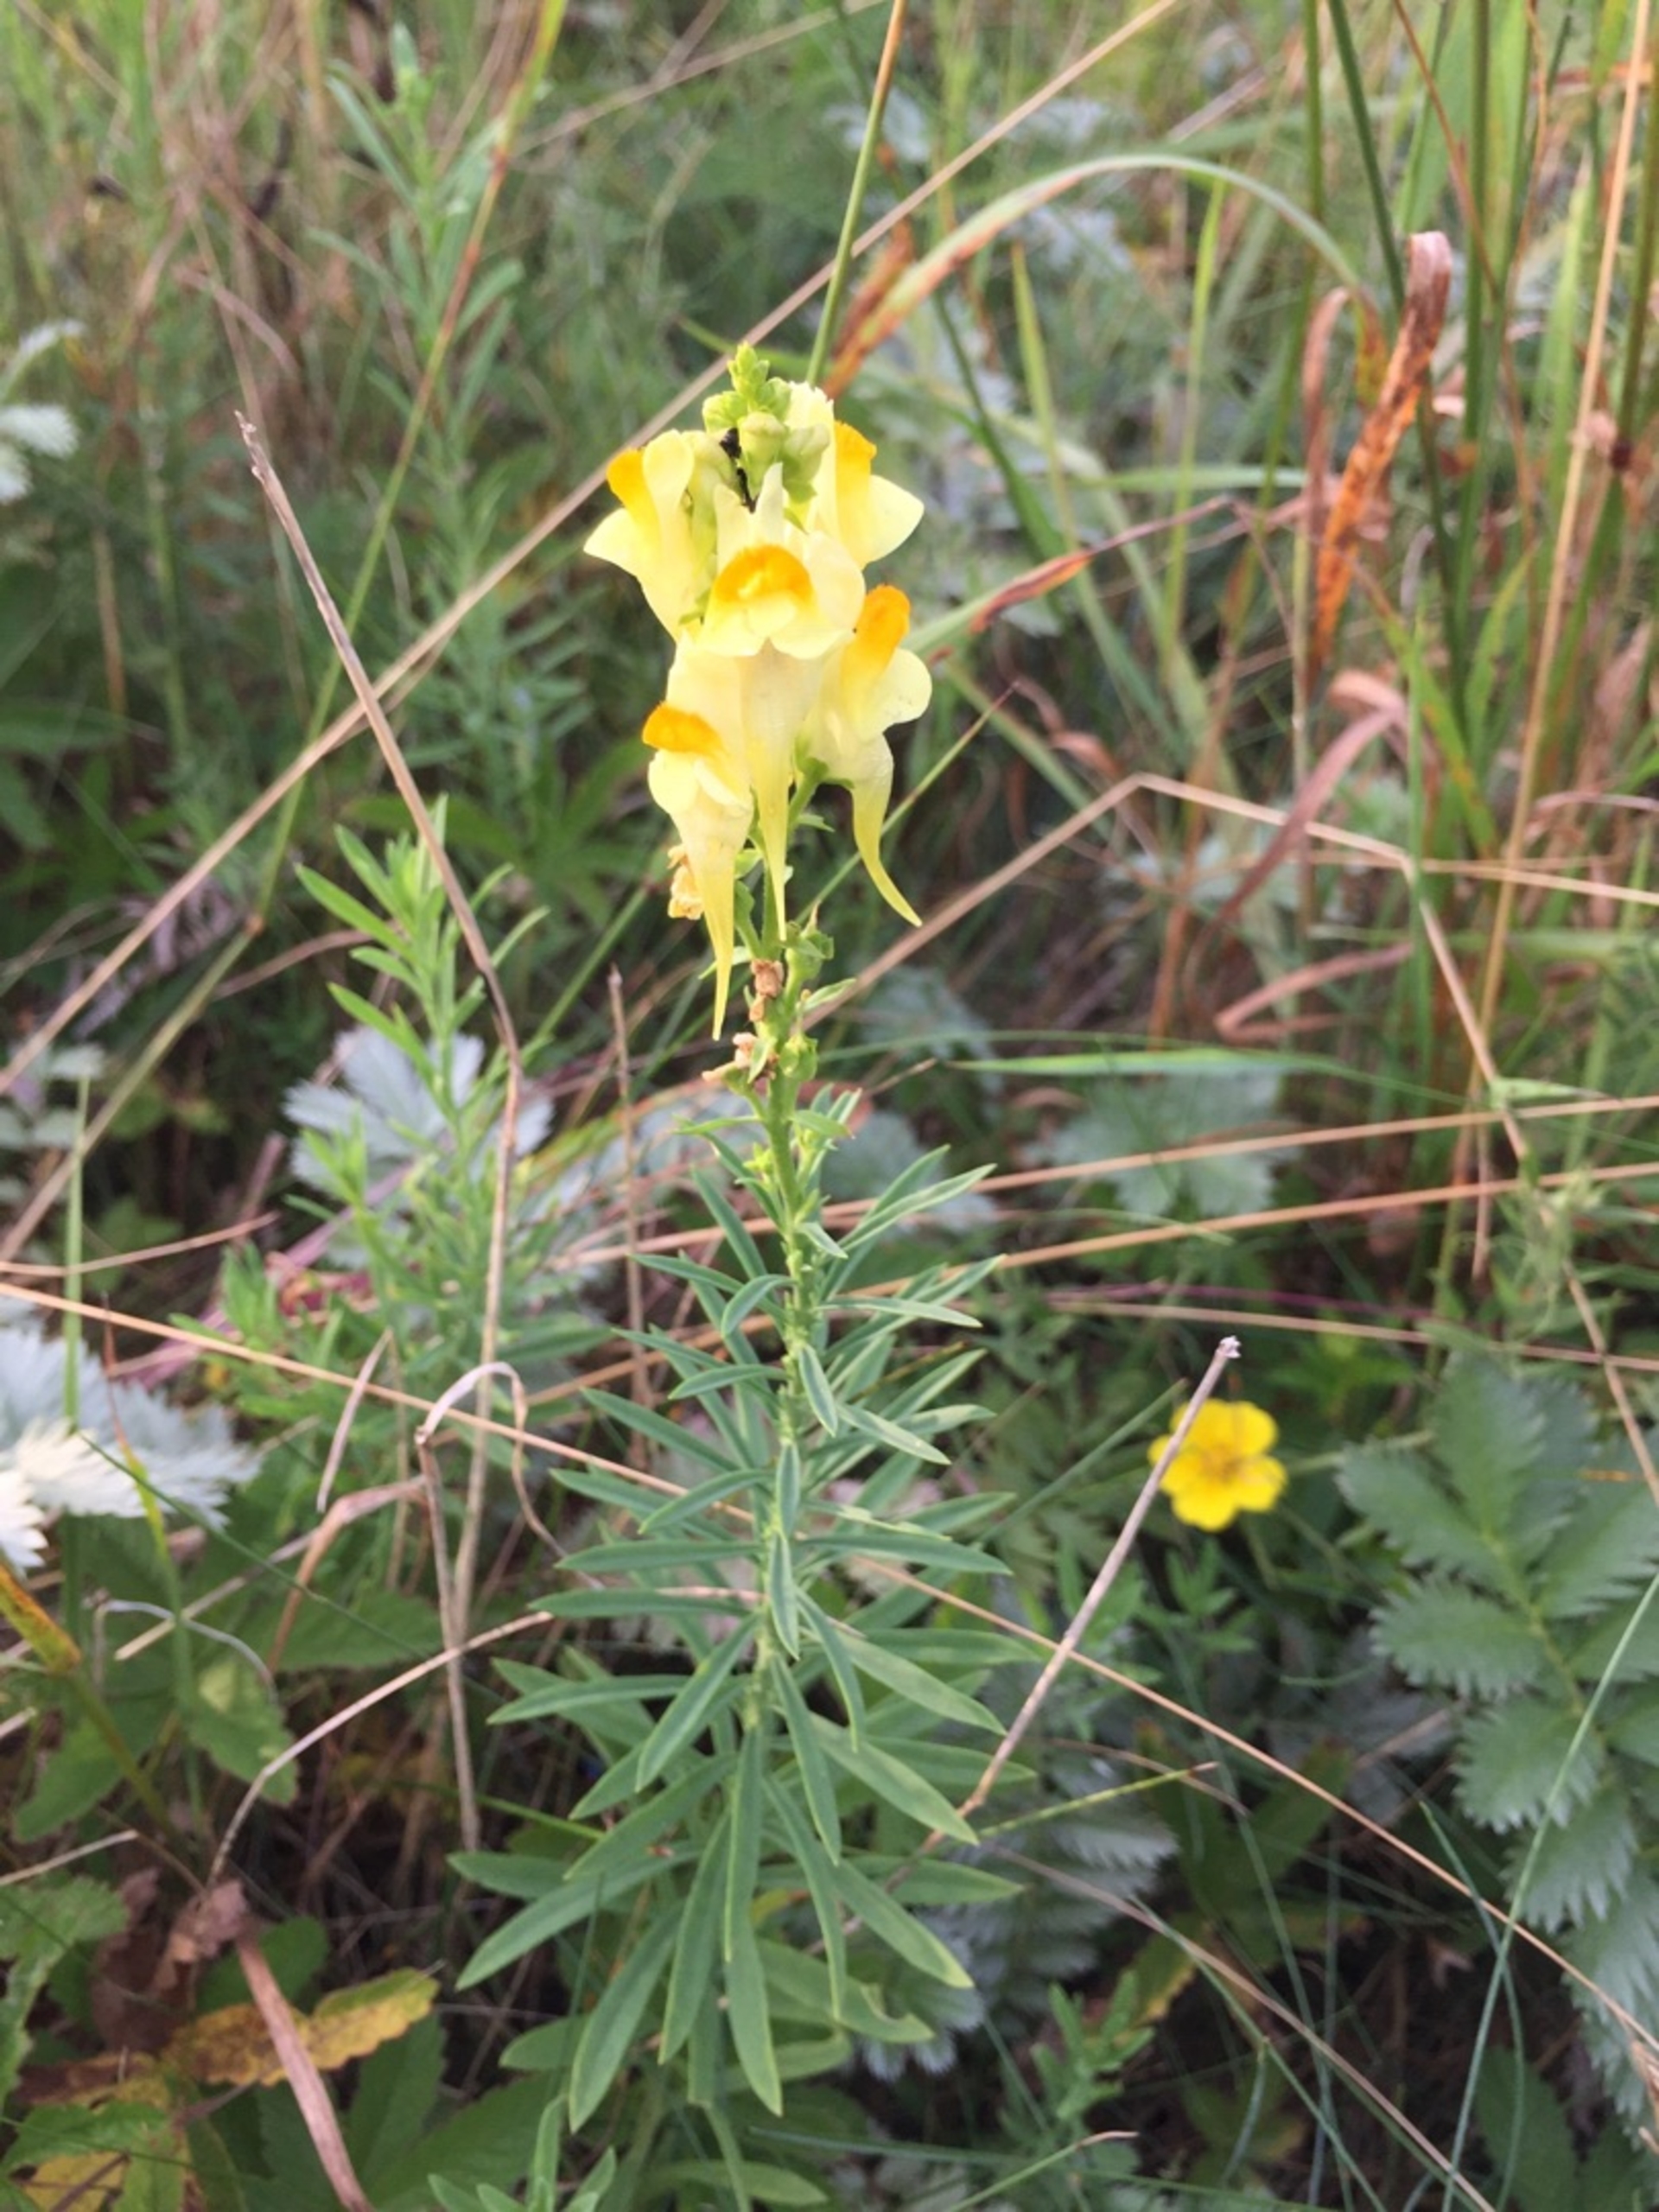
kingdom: Plantae
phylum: Tracheophyta
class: Magnoliopsida
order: Lamiales
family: Plantaginaceae
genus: Linaria
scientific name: Linaria vulgaris
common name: Almindelig torskemund
